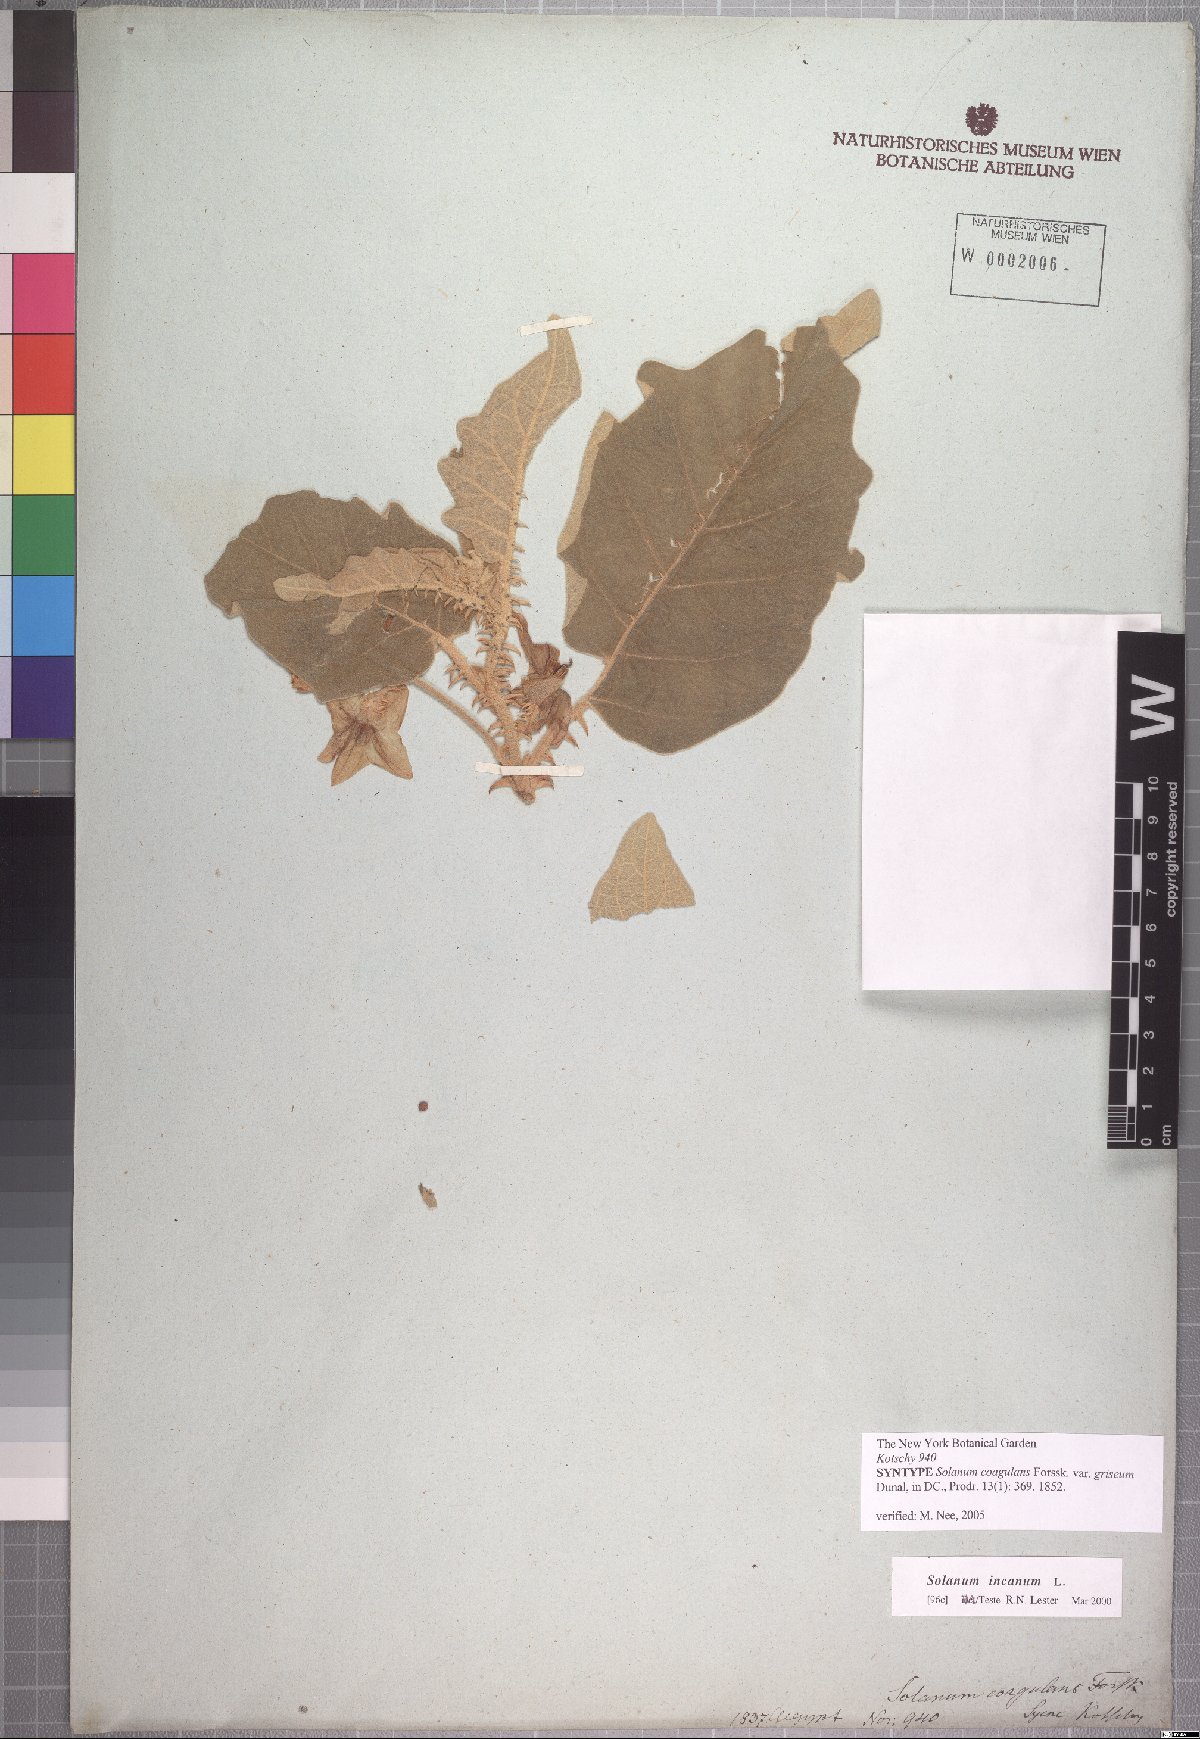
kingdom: Plantae
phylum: Tracheophyta
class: Magnoliopsida
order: Solanales
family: Solanaceae
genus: Solanum
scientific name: Solanum incanum
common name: Bitter apple
